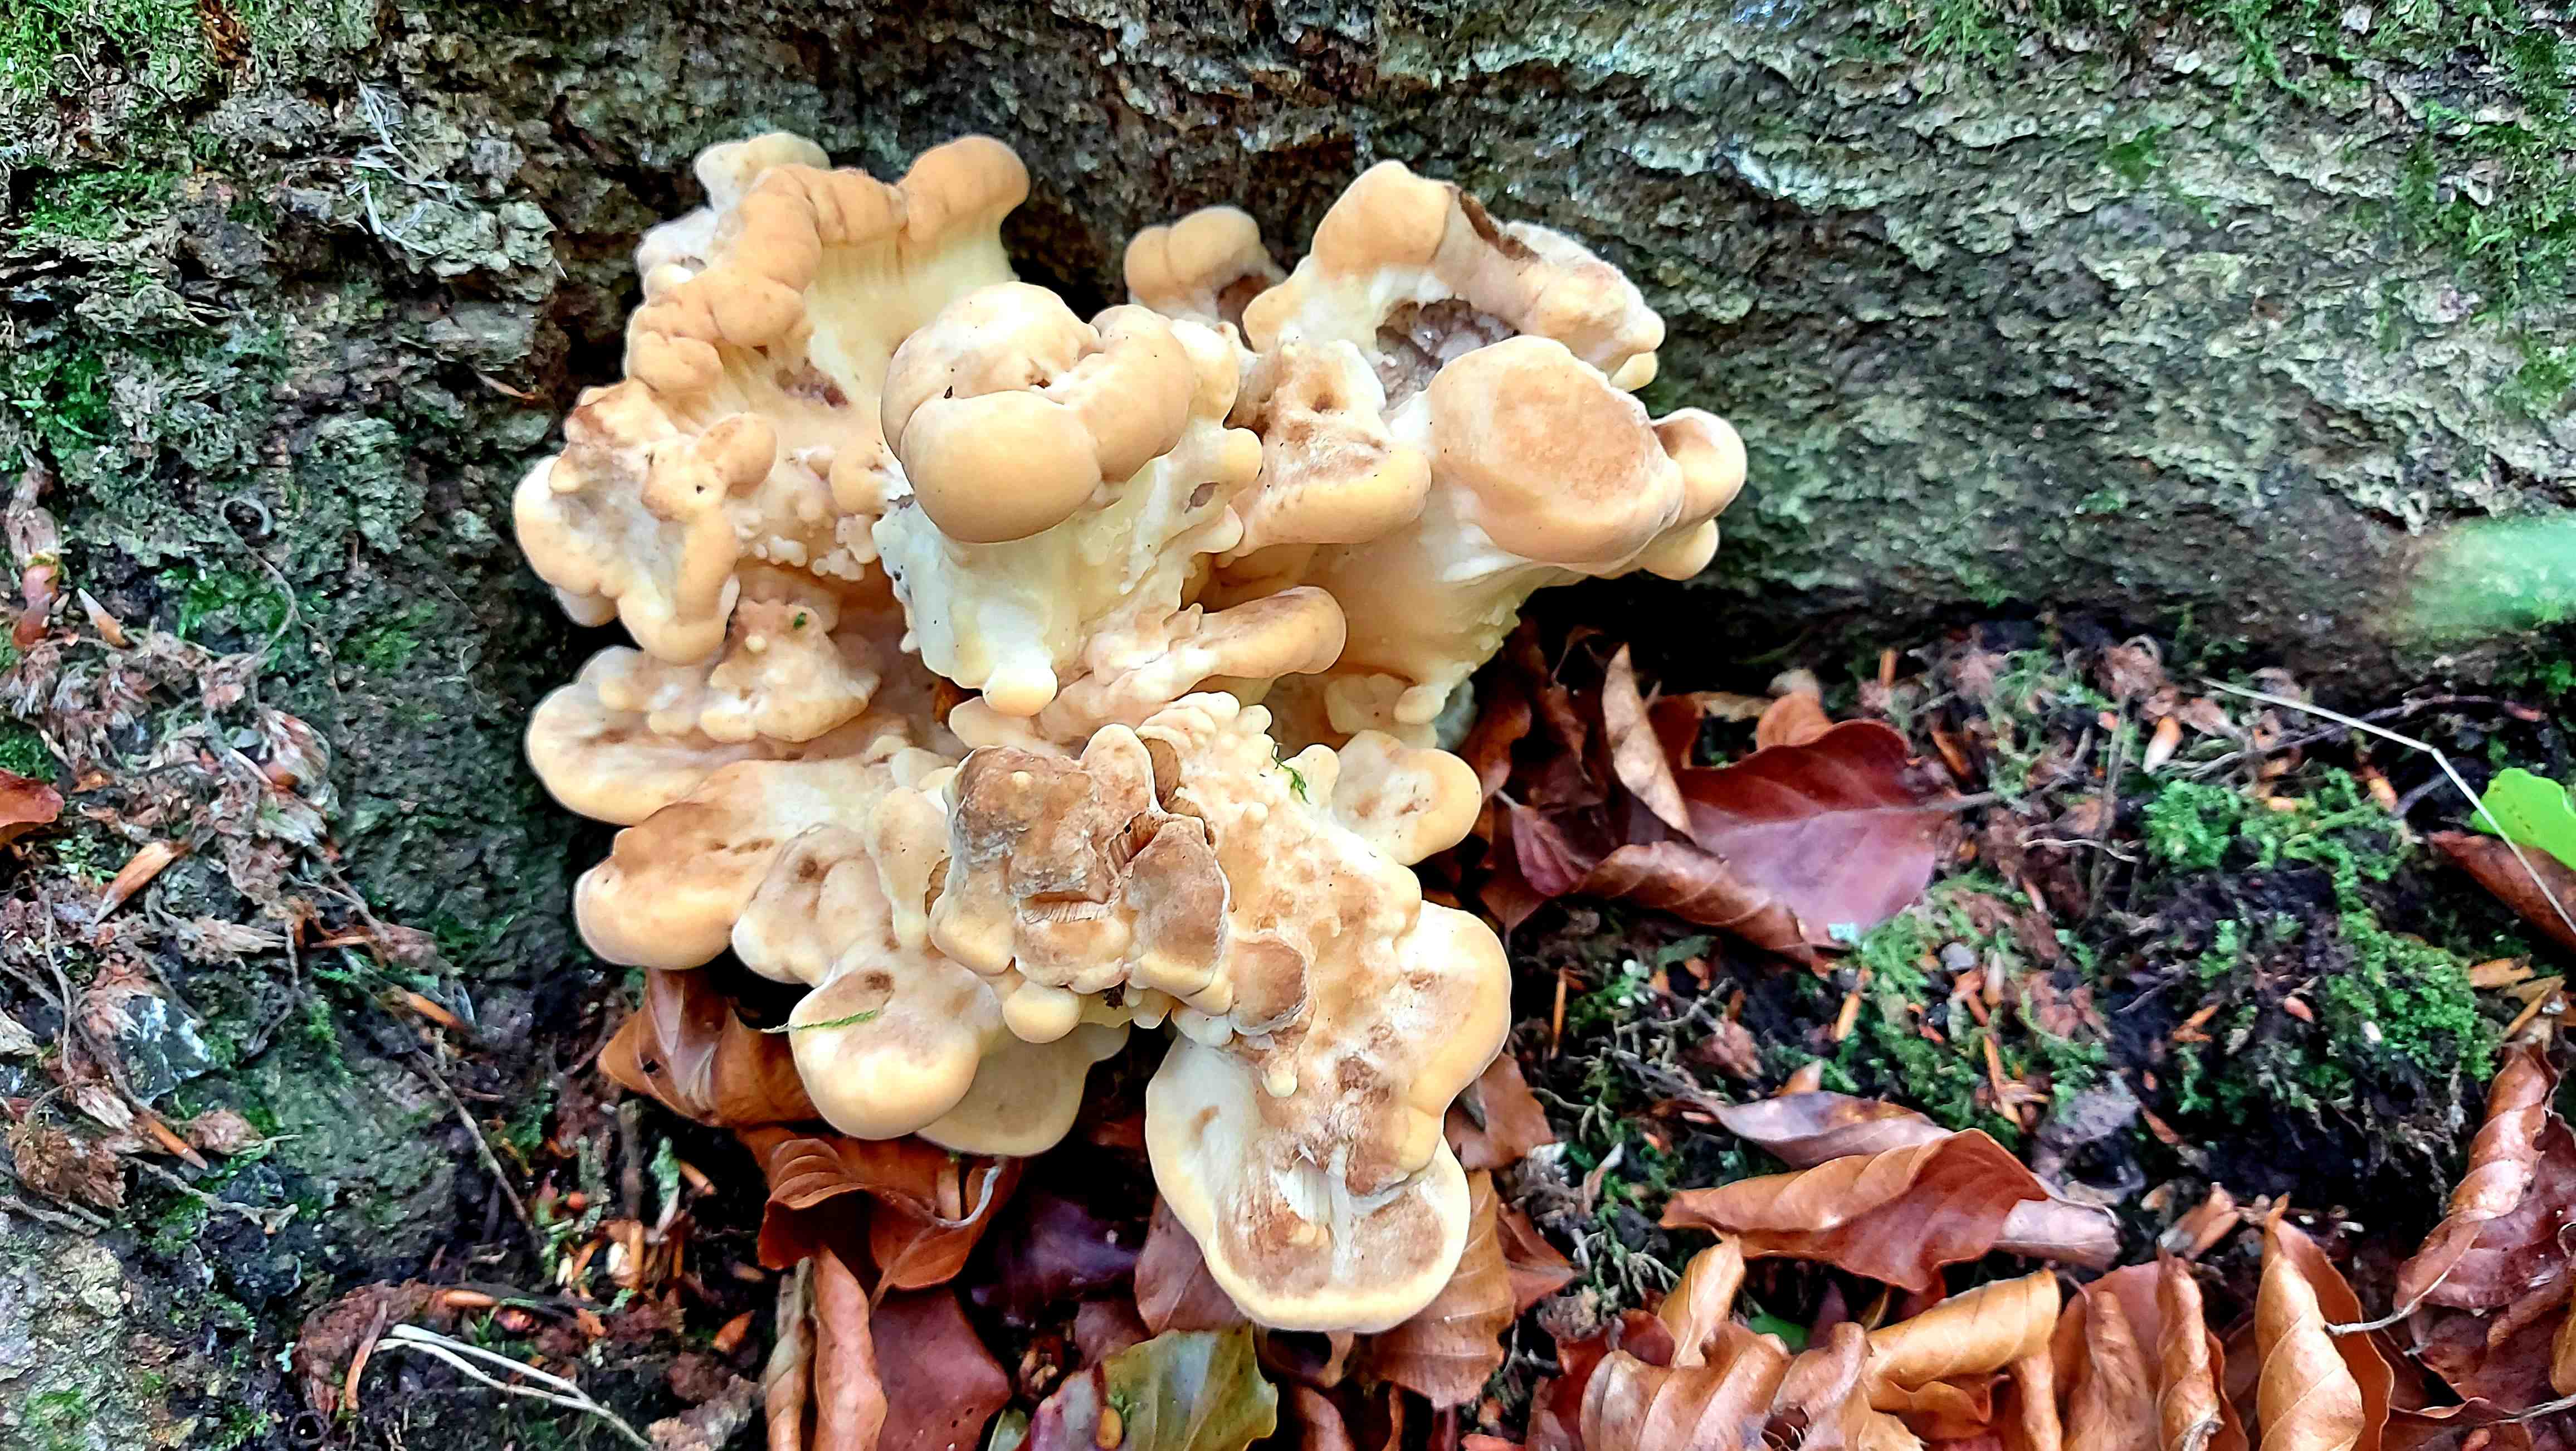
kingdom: Fungi
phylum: Basidiomycota
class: Agaricomycetes
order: Polyporales
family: Meripilaceae
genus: Meripilus
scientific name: Meripilus giganteus
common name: kæmpeporesvamp
